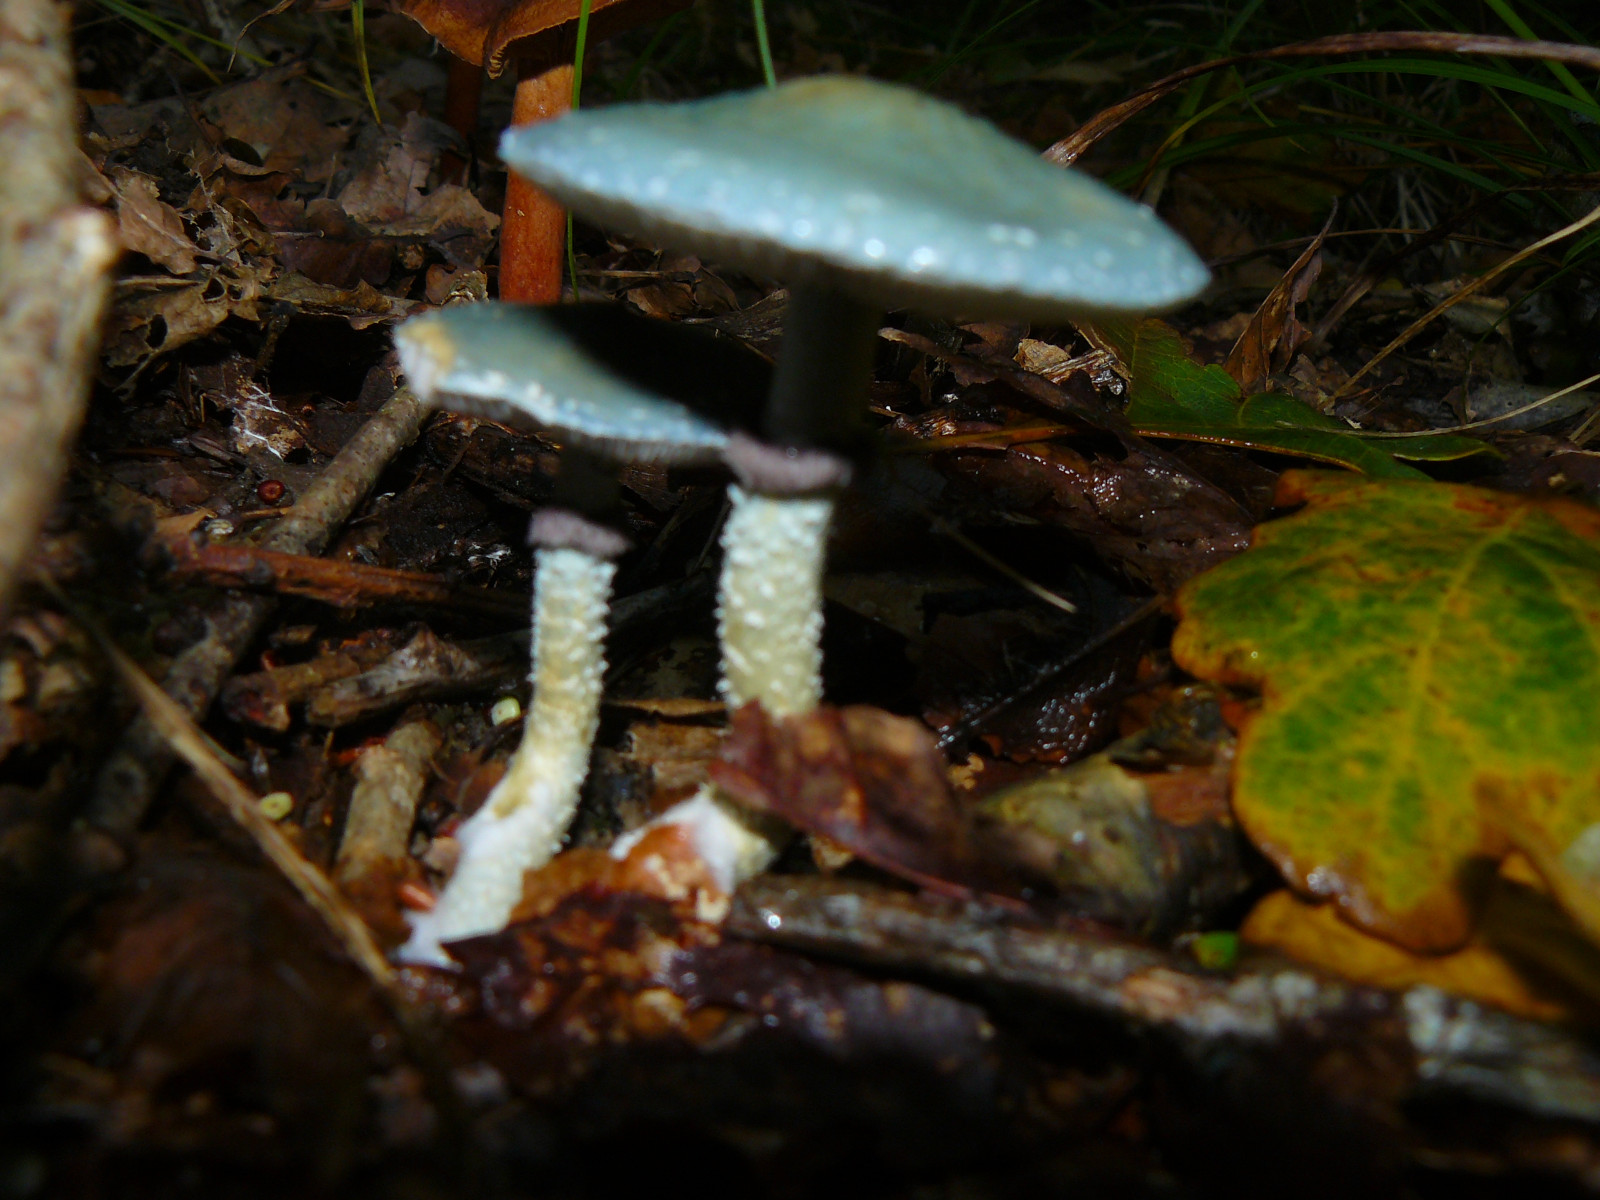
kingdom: Fungi
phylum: Basidiomycota
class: Agaricomycetes
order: Agaricales
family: Strophariaceae
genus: Stropharia
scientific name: Stropharia aeruginosa
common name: spanskgrøn bredblad
